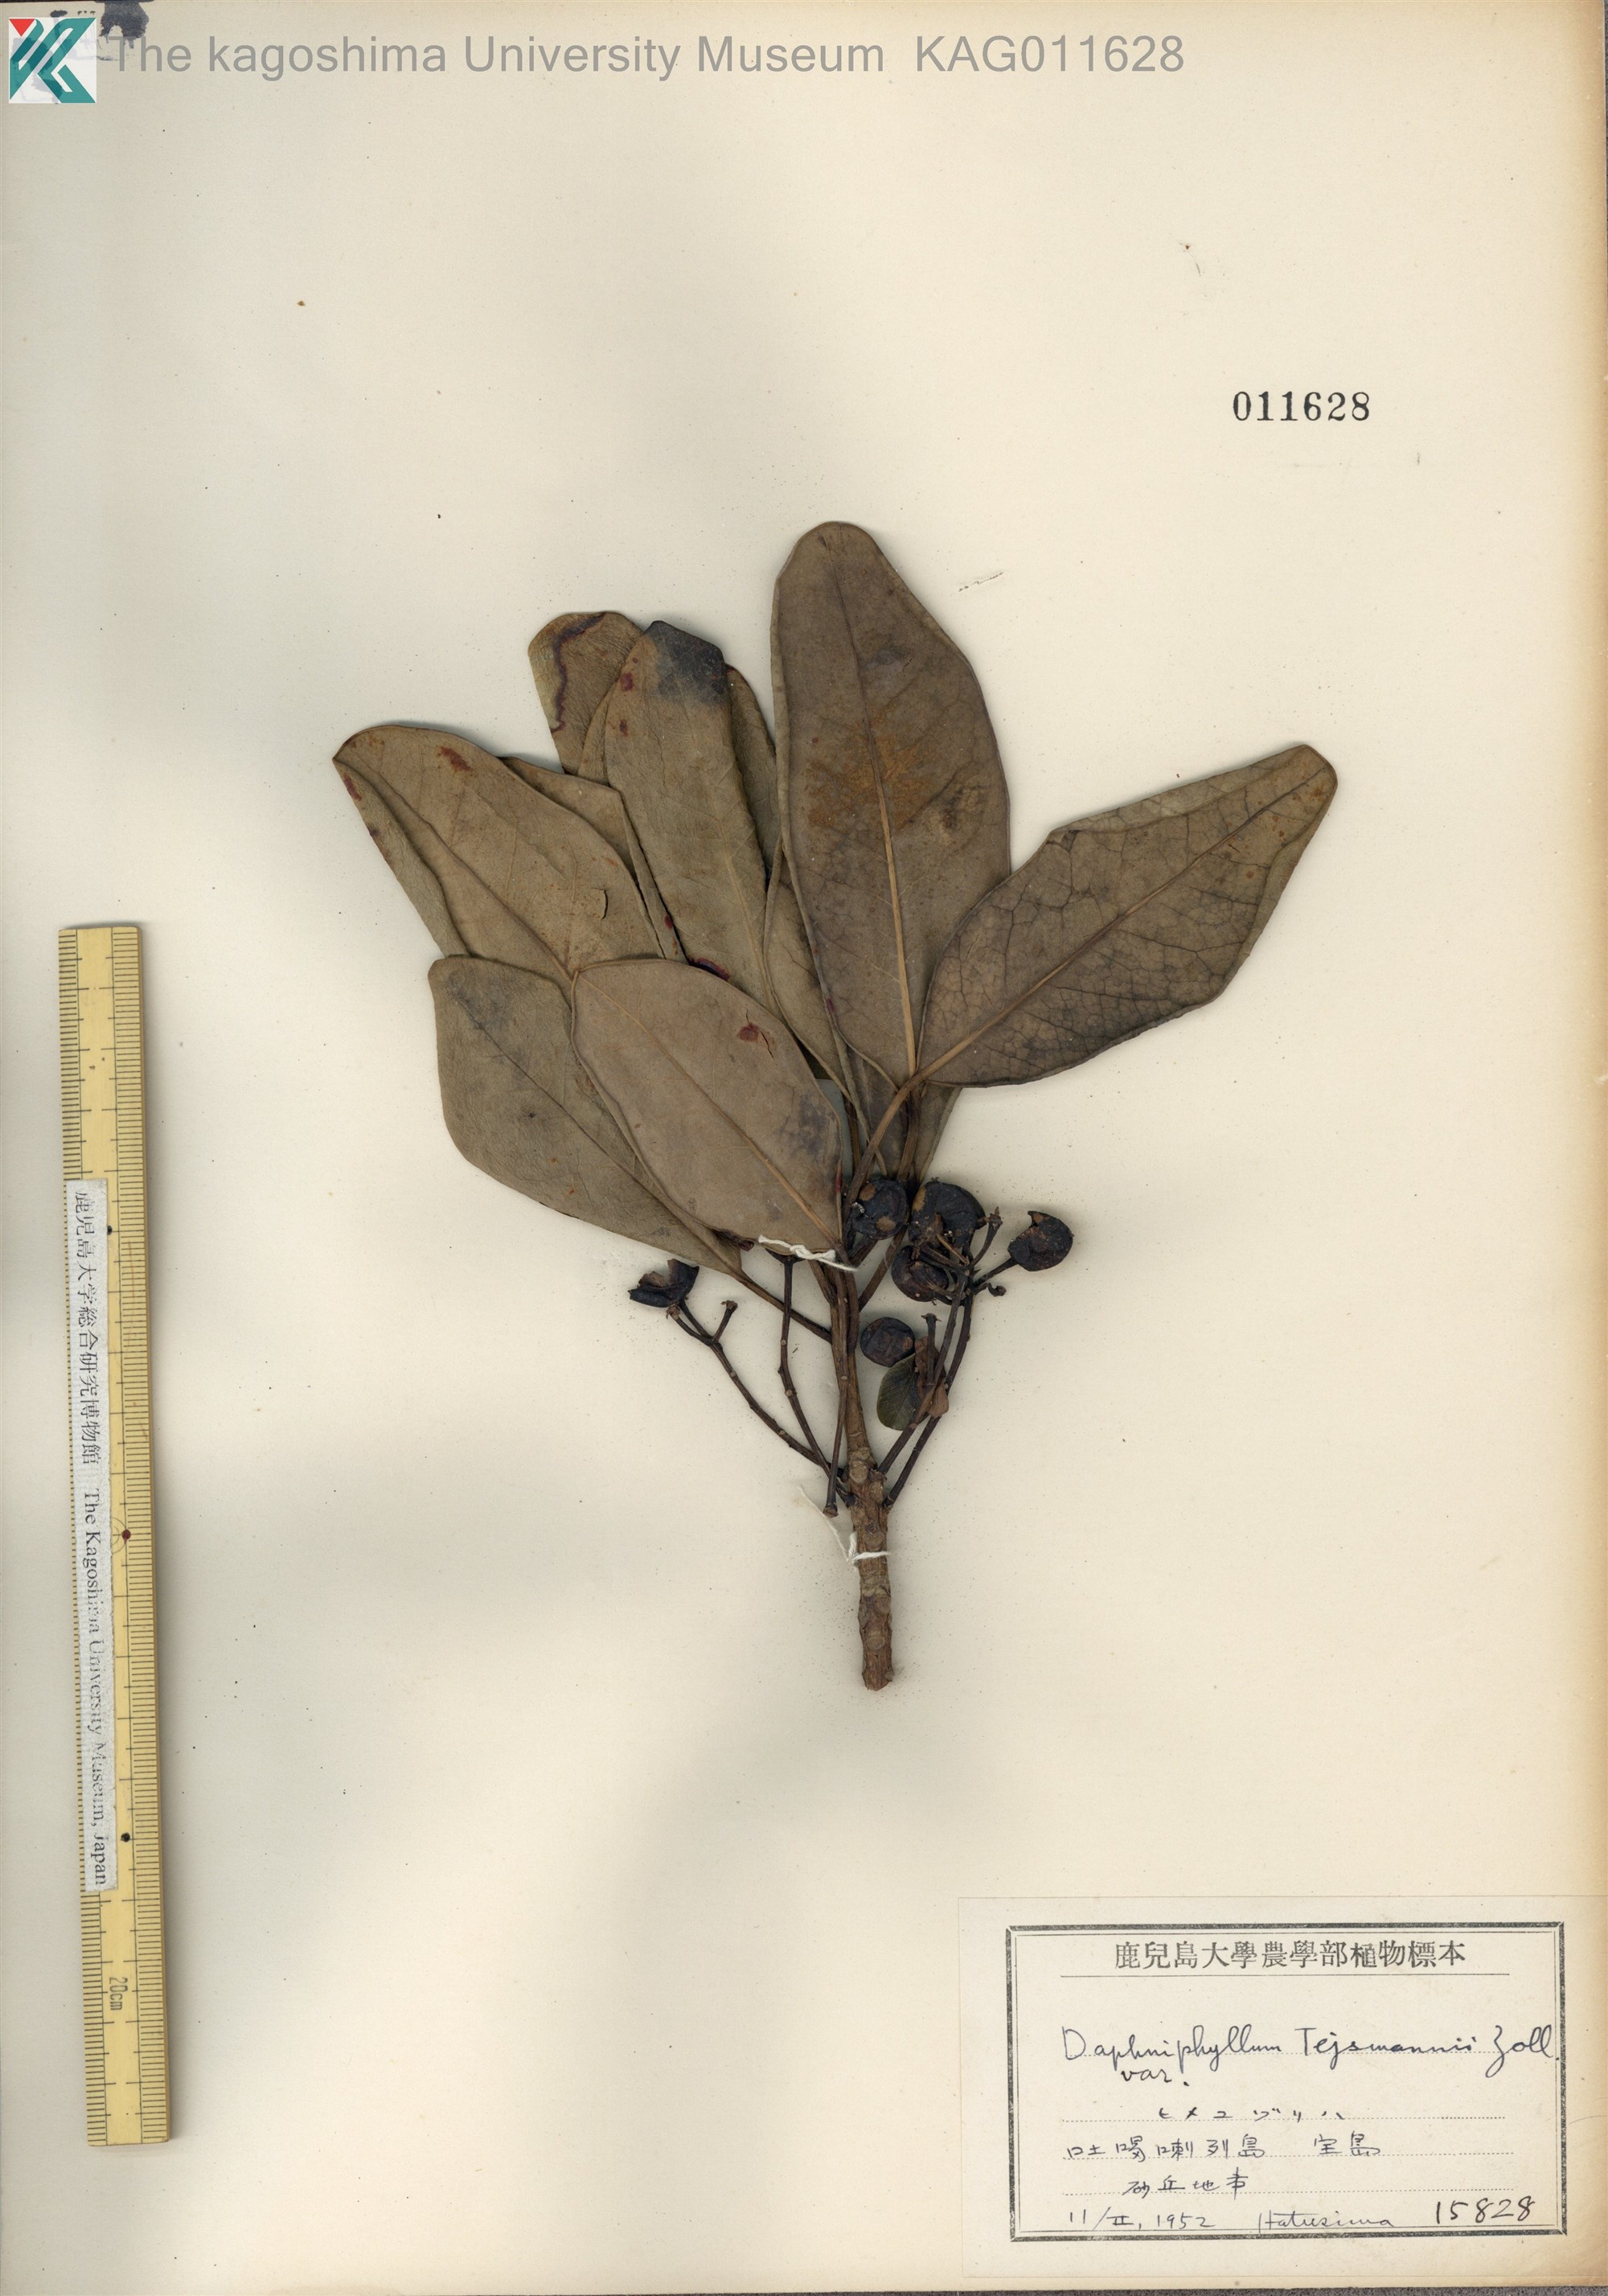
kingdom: Plantae
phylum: Tracheophyta
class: Magnoliopsida
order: Saxifragales
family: Daphniphyllaceae
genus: Daphniphyllum
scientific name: Daphniphyllum teijsmannii
